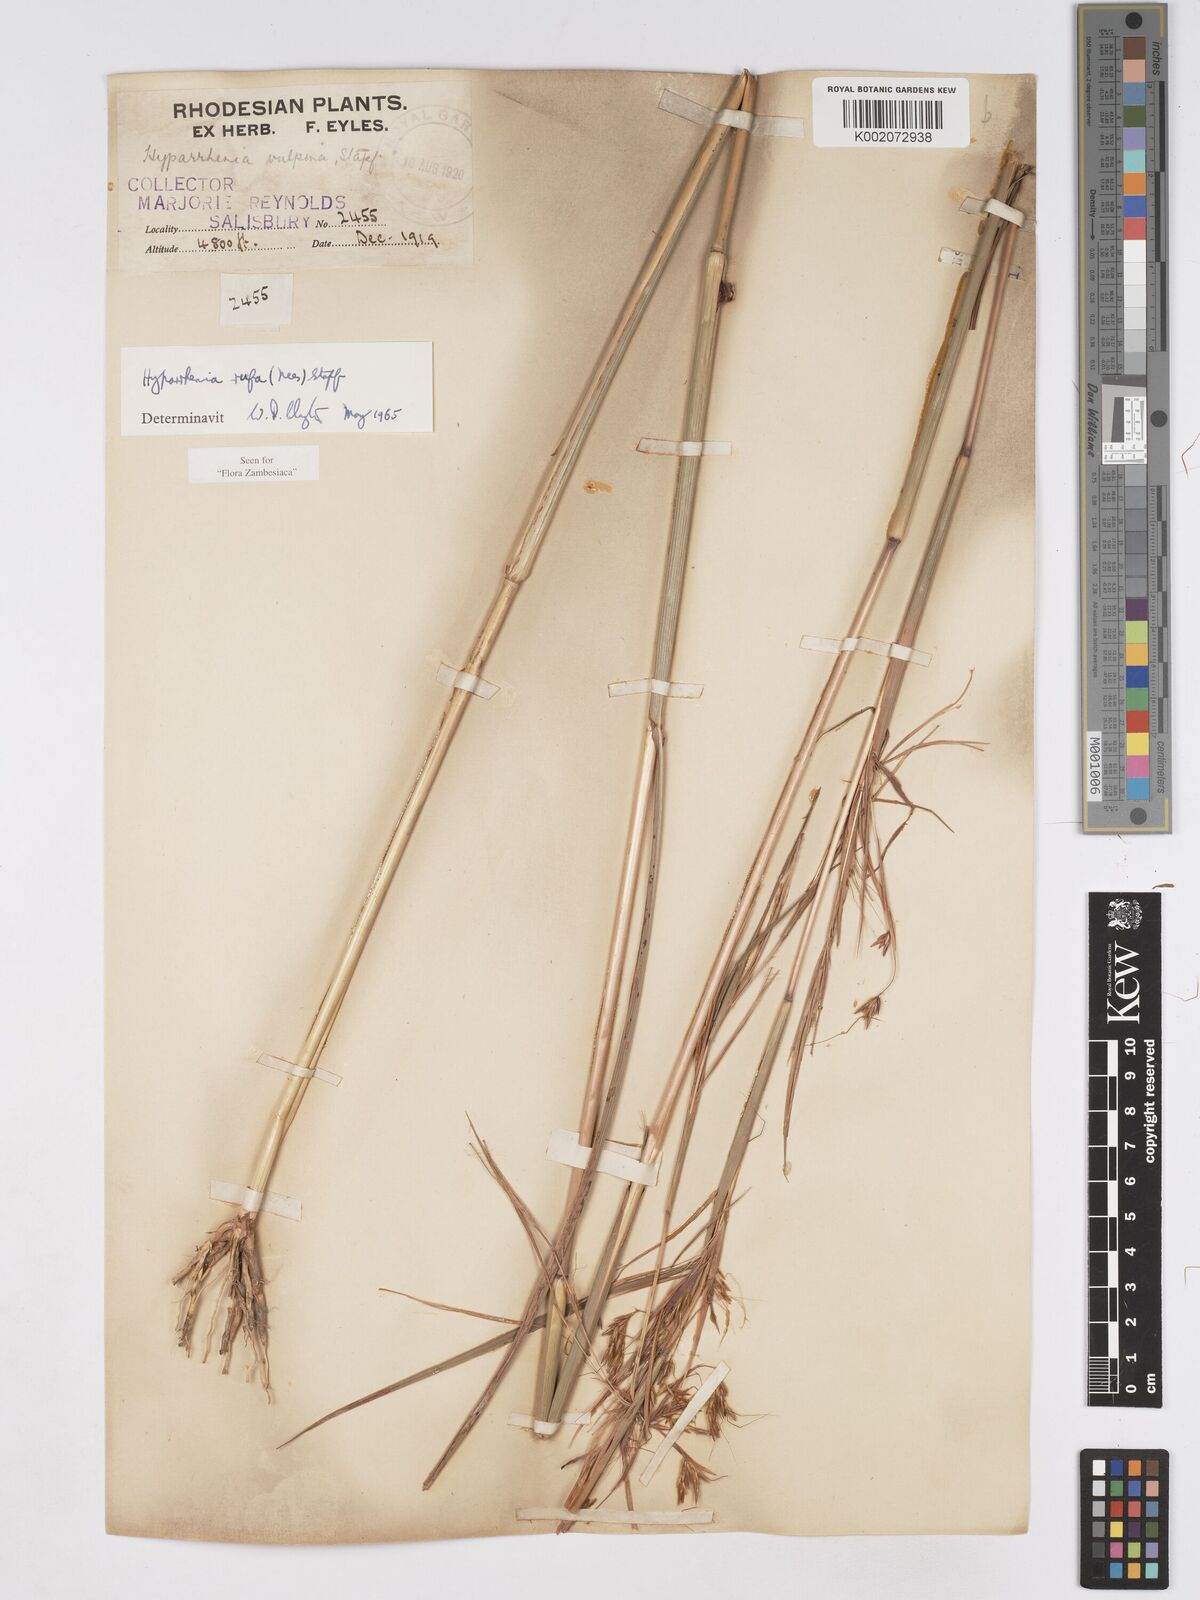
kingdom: Plantae
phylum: Tracheophyta
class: Liliopsida
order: Poales
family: Poaceae
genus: Hyparrhenia
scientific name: Hyparrhenia rufa
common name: Jaraguagrass
